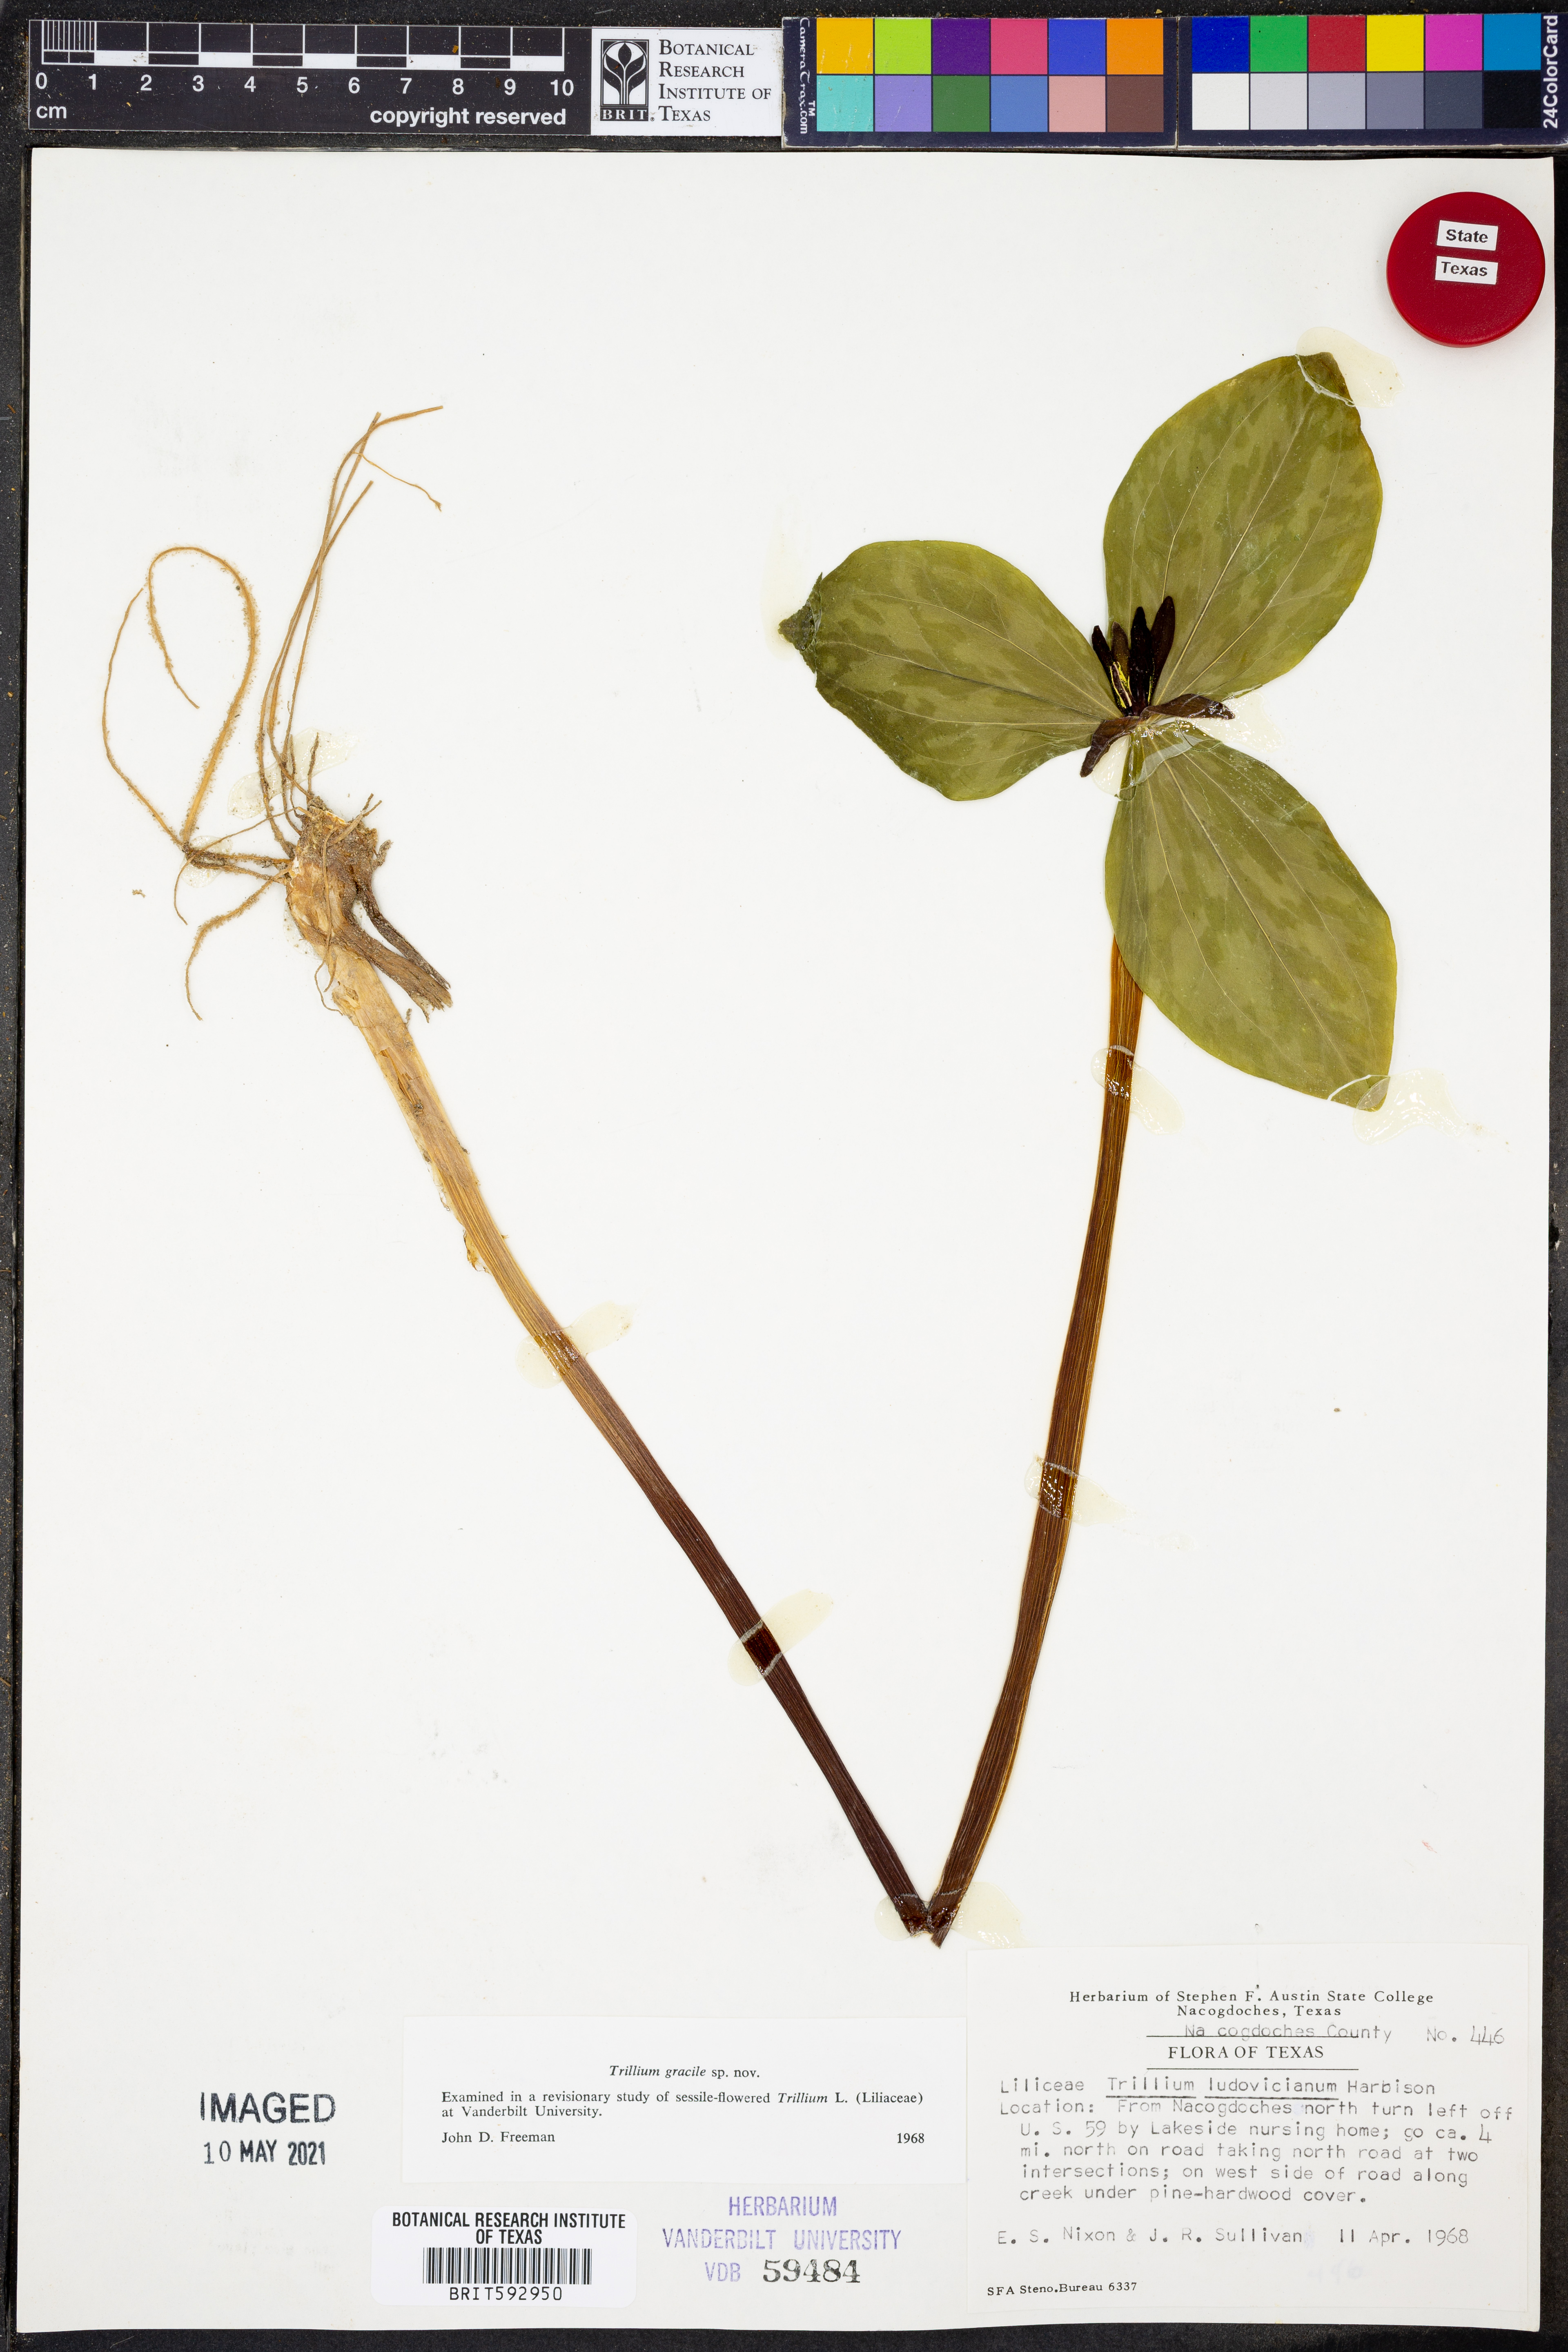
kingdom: Plantae
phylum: Tracheophyta
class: Liliopsida
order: Liliales
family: Melanthiaceae
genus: Trillium
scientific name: Trillium gracile
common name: Graceful trillium
